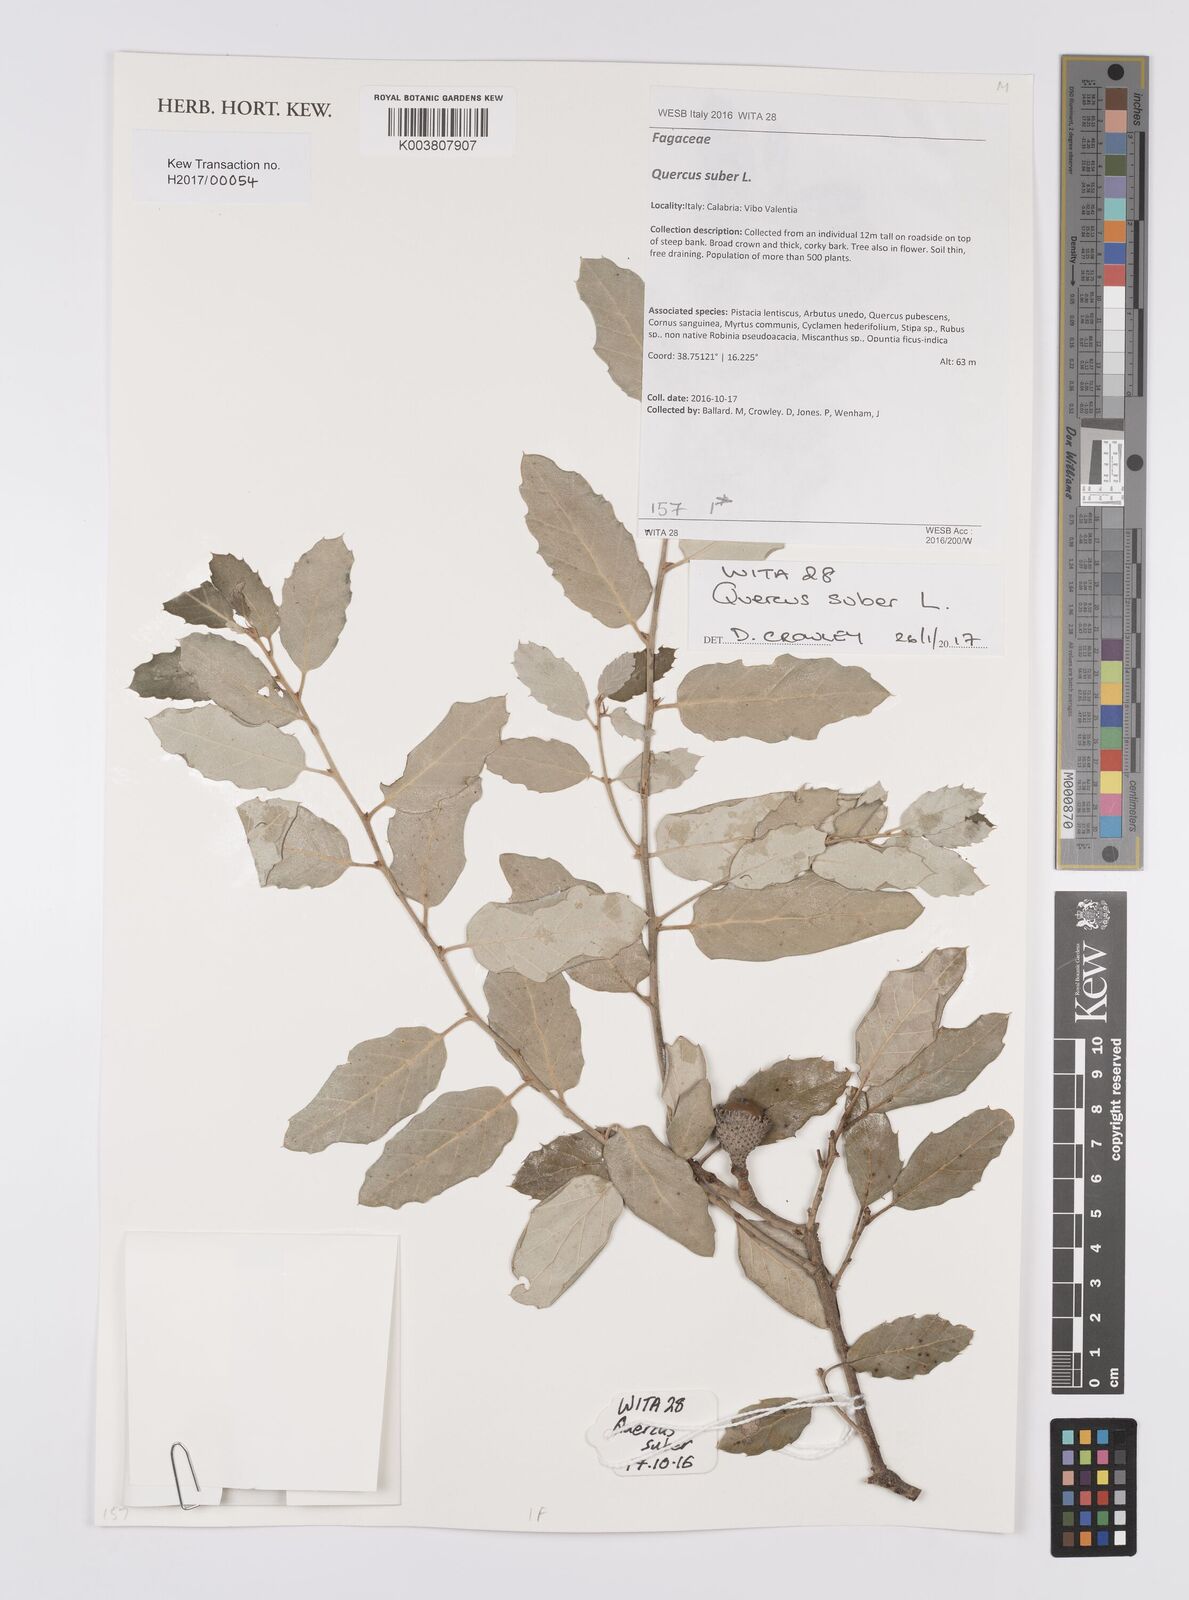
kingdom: Plantae
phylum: Tracheophyta
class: Magnoliopsida
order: Fagales
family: Fagaceae
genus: Quercus
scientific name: Quercus suber
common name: Cork oak
